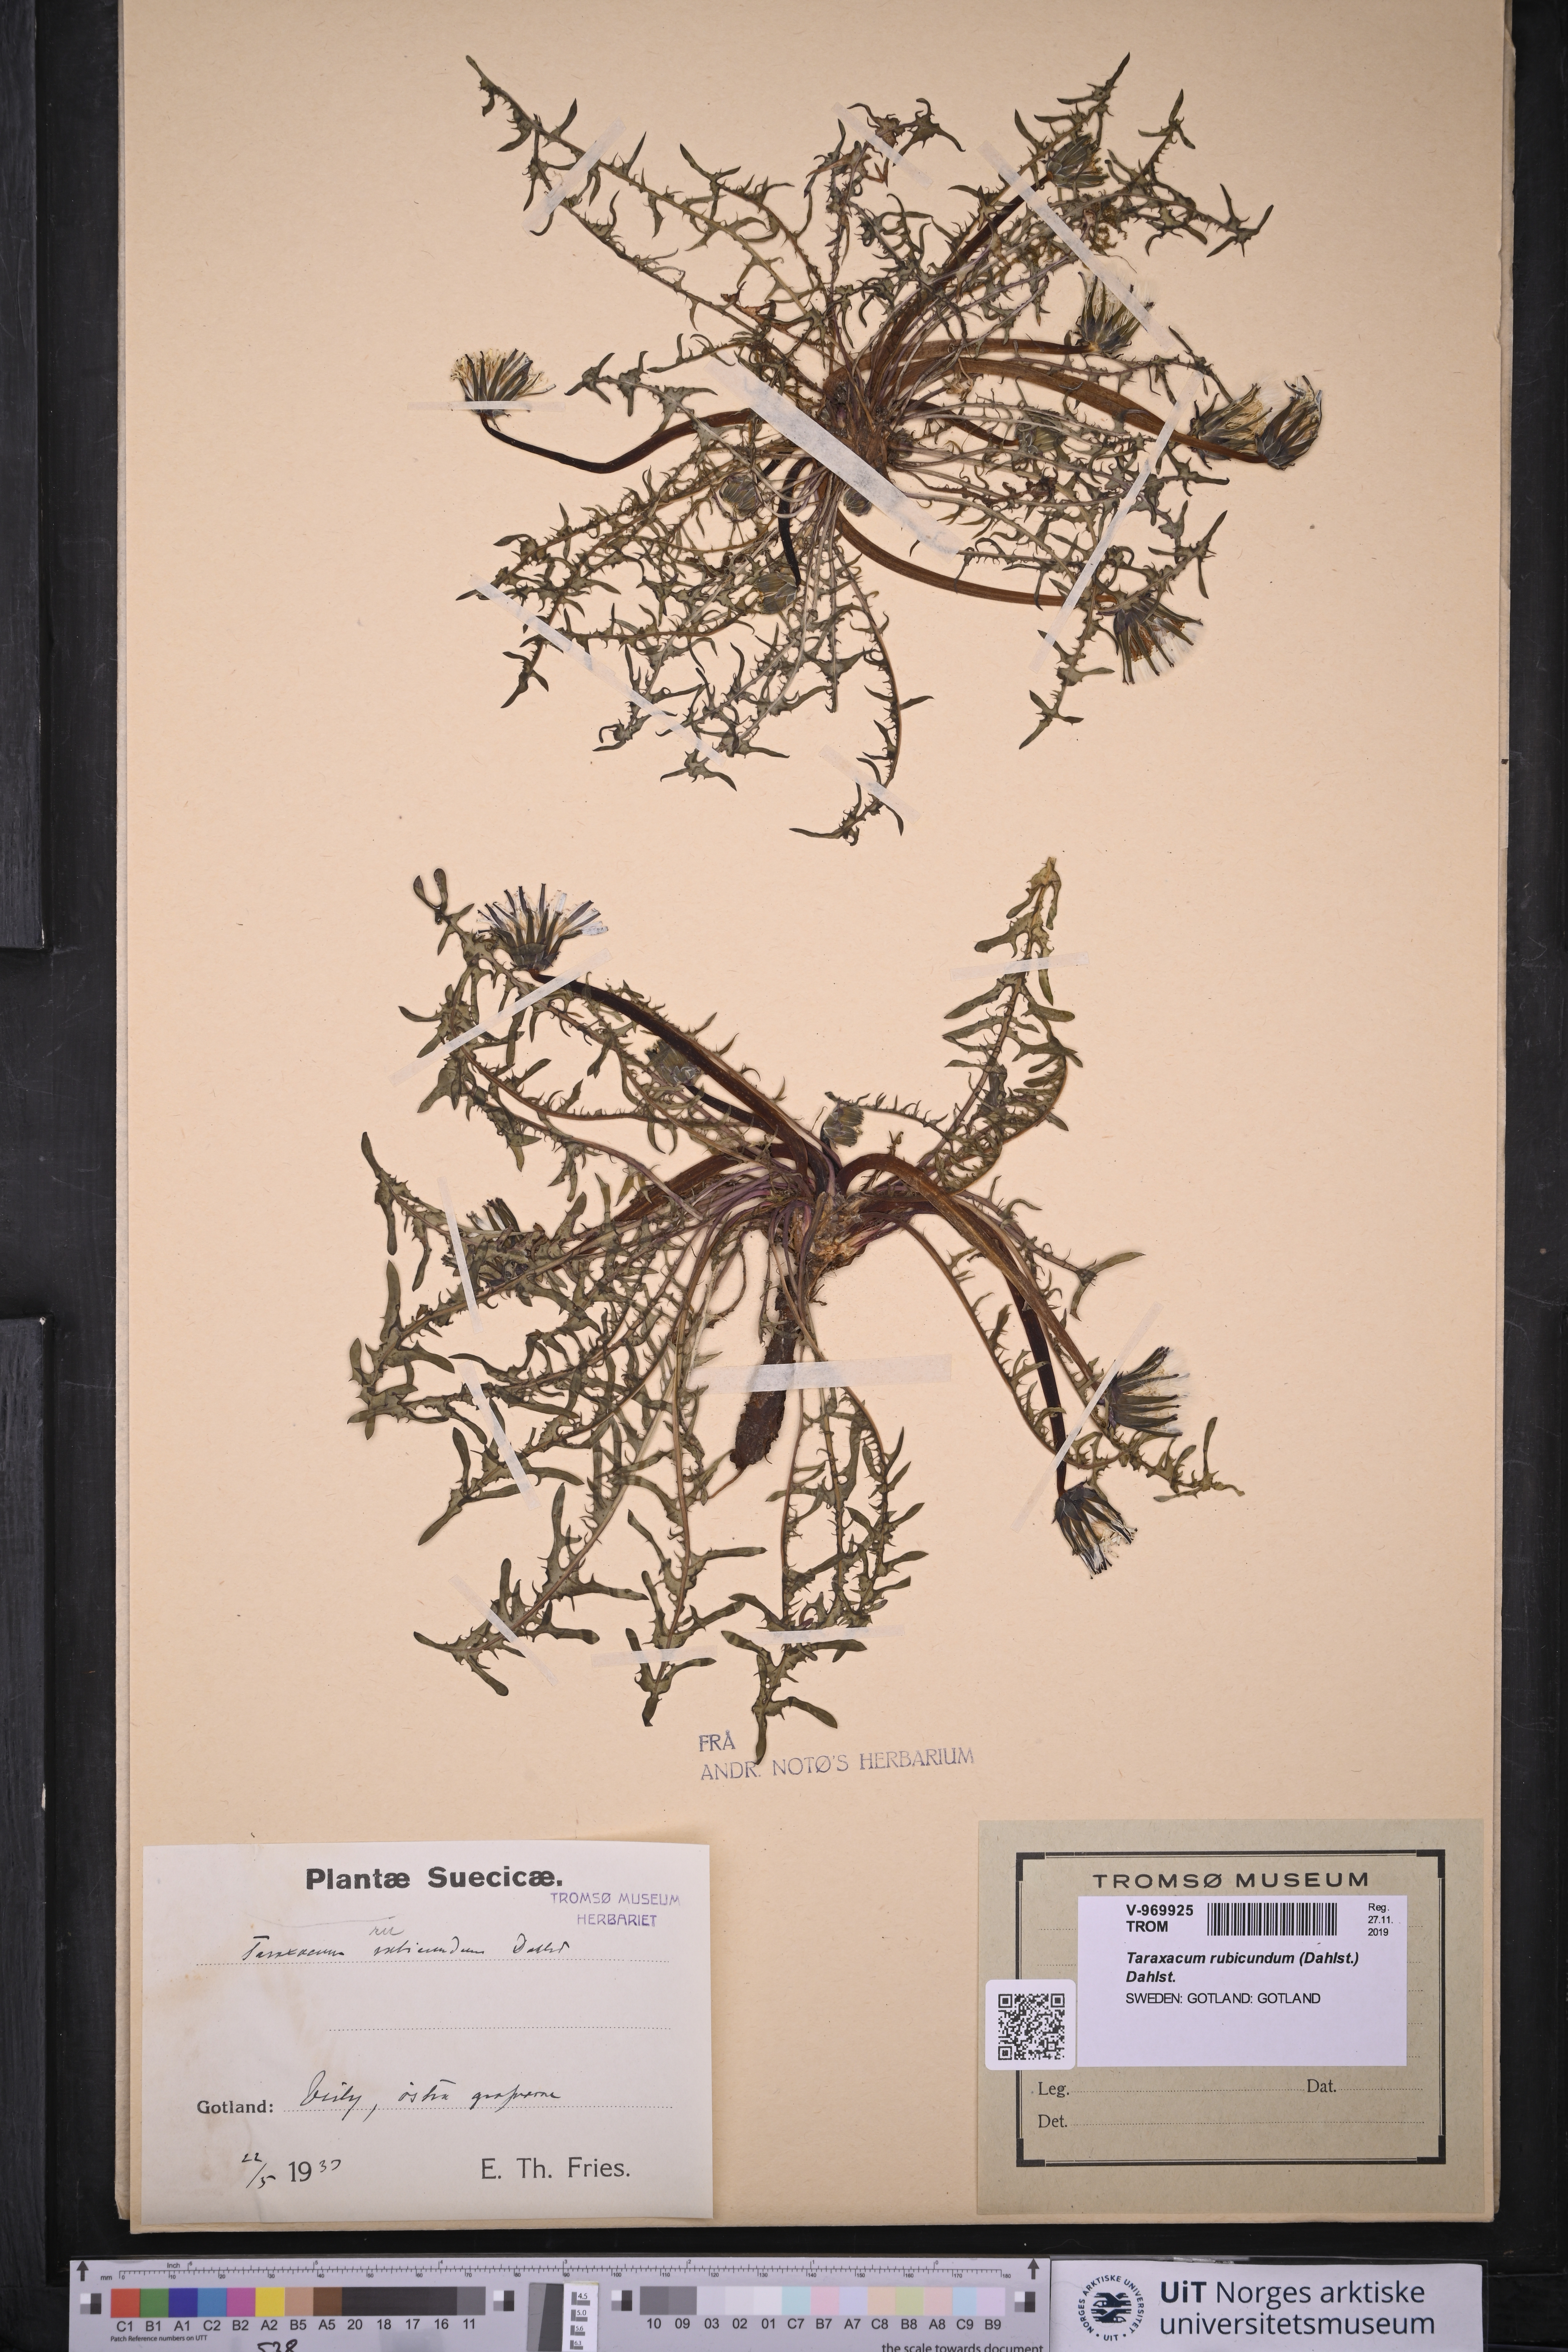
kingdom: Plantae
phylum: Tracheophyta
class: Magnoliopsida
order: Asterales
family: Asteraceae
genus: Taraxacum
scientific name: Taraxacum rubicundum
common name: Ruddy dandelion
